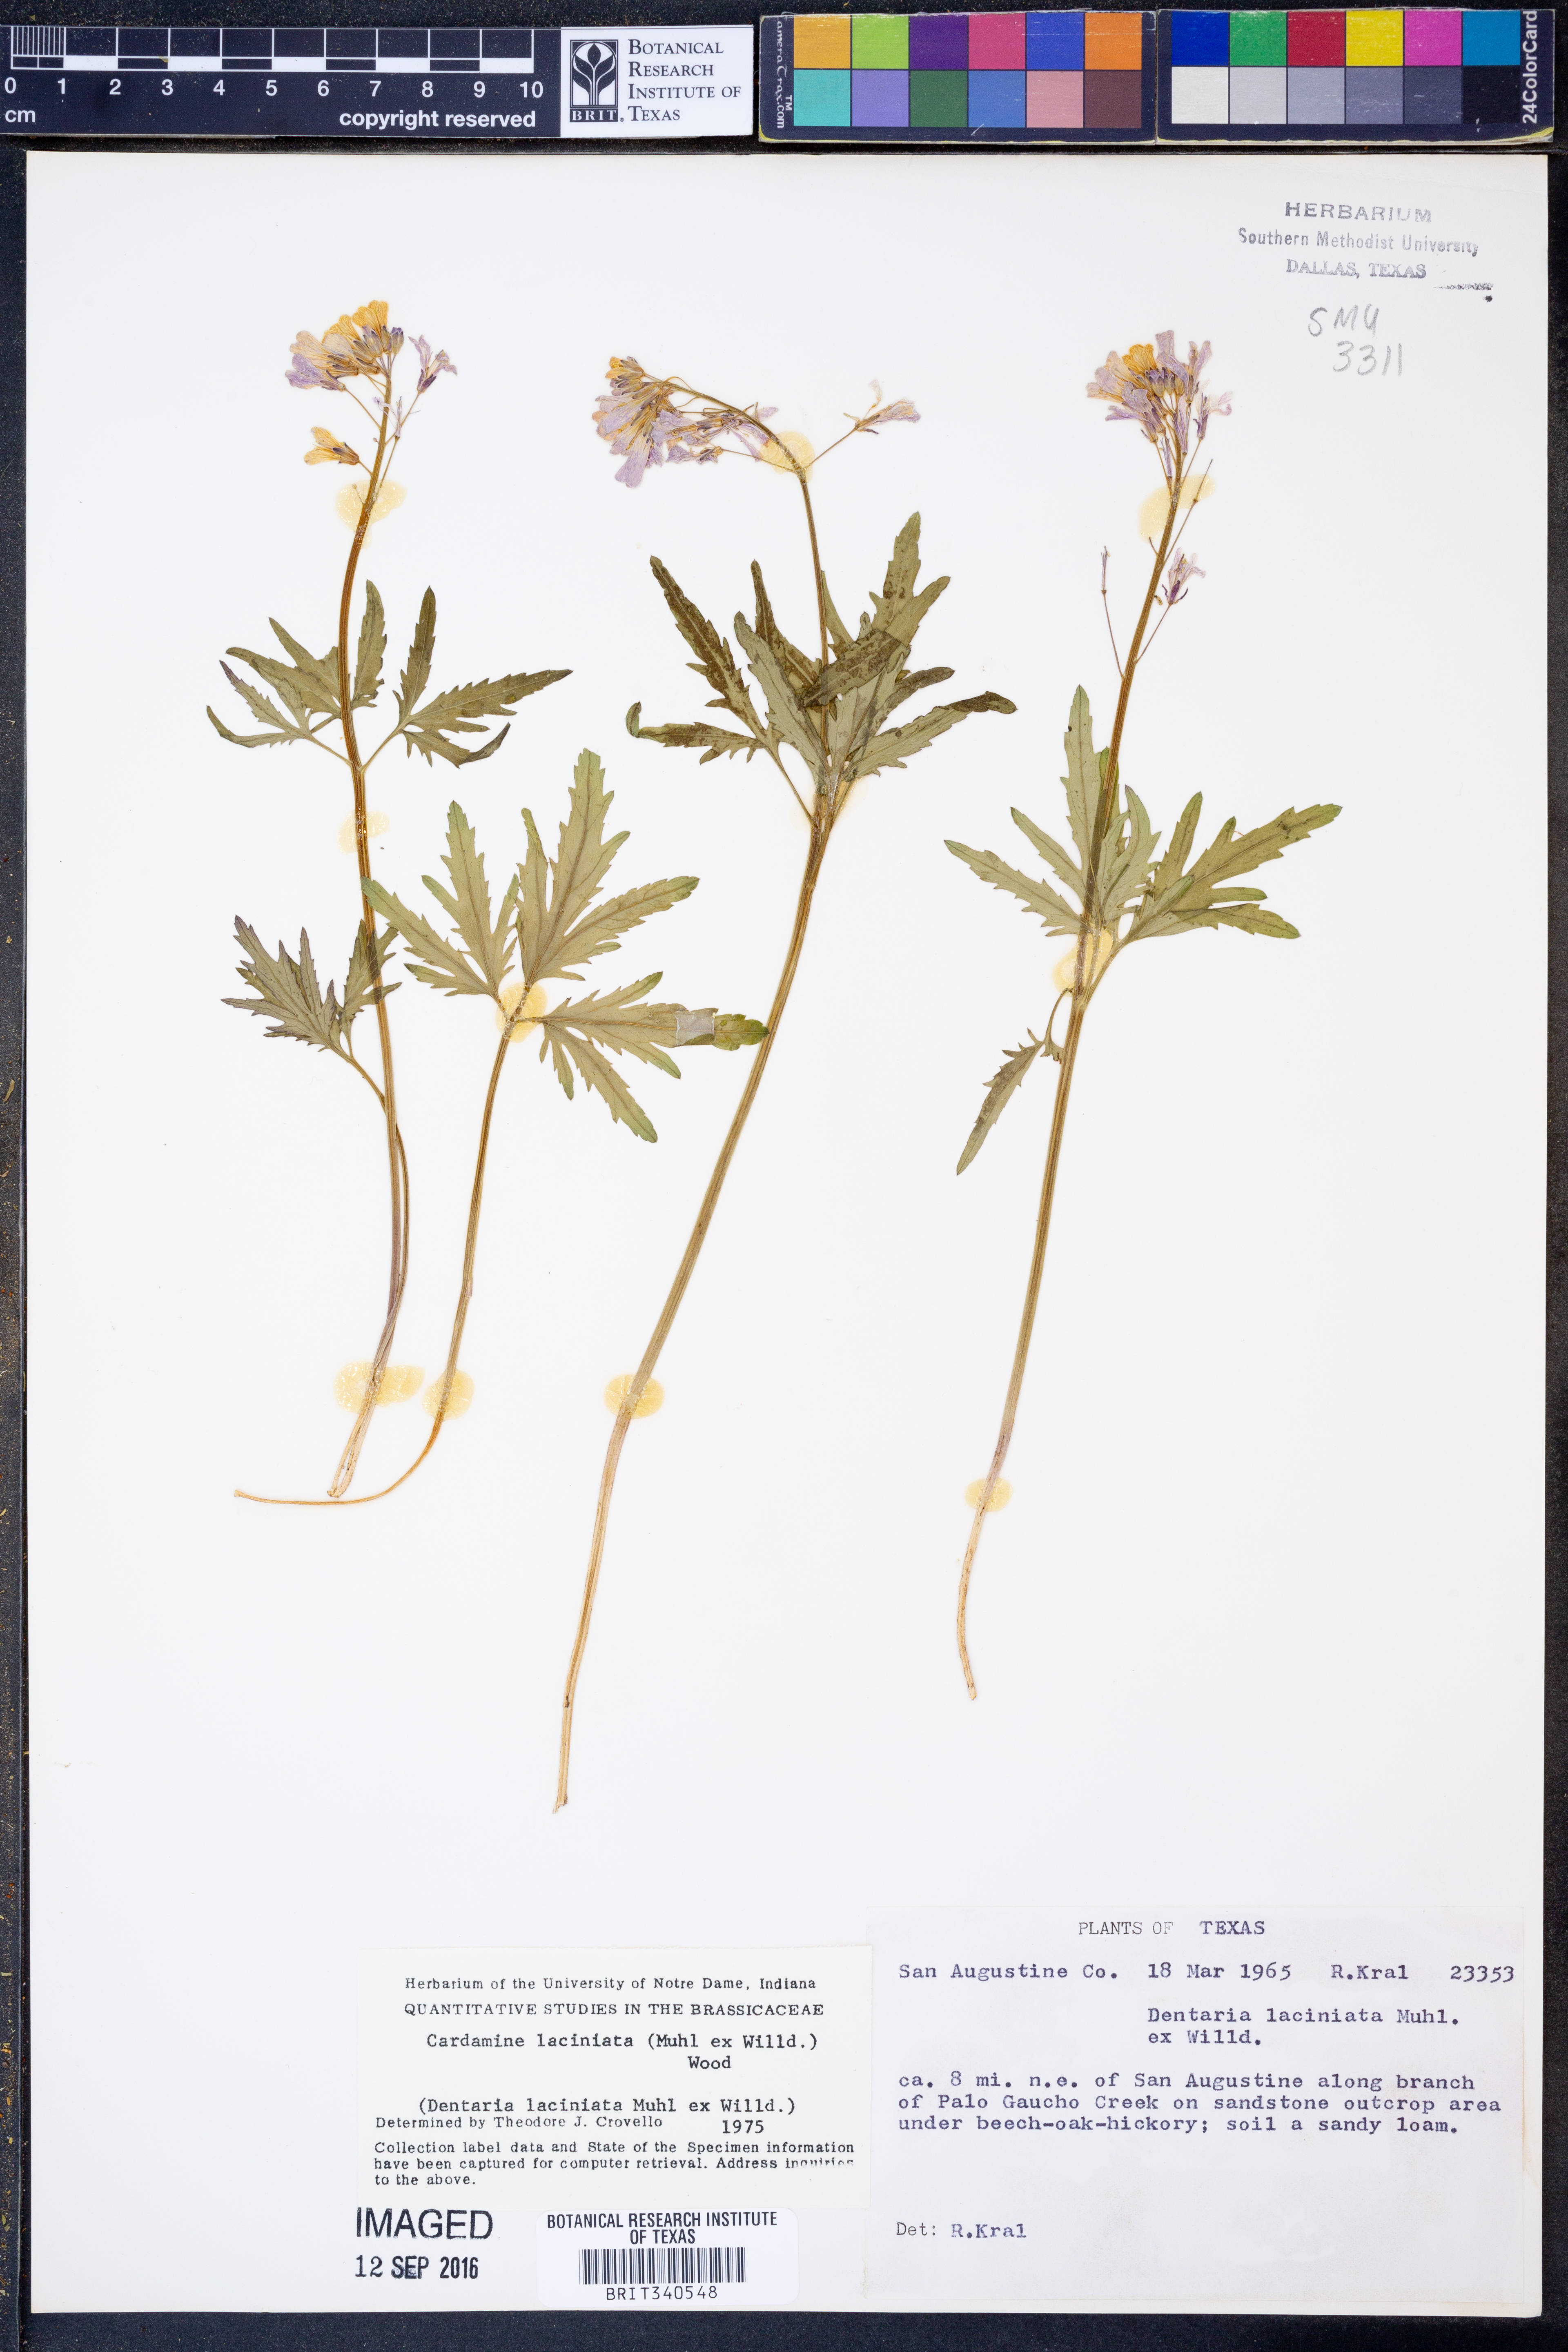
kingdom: Plantae
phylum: Tracheophyta
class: Magnoliopsida
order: Brassicales
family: Brassicaceae
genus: Rorippa
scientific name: Rorippa laciniata
